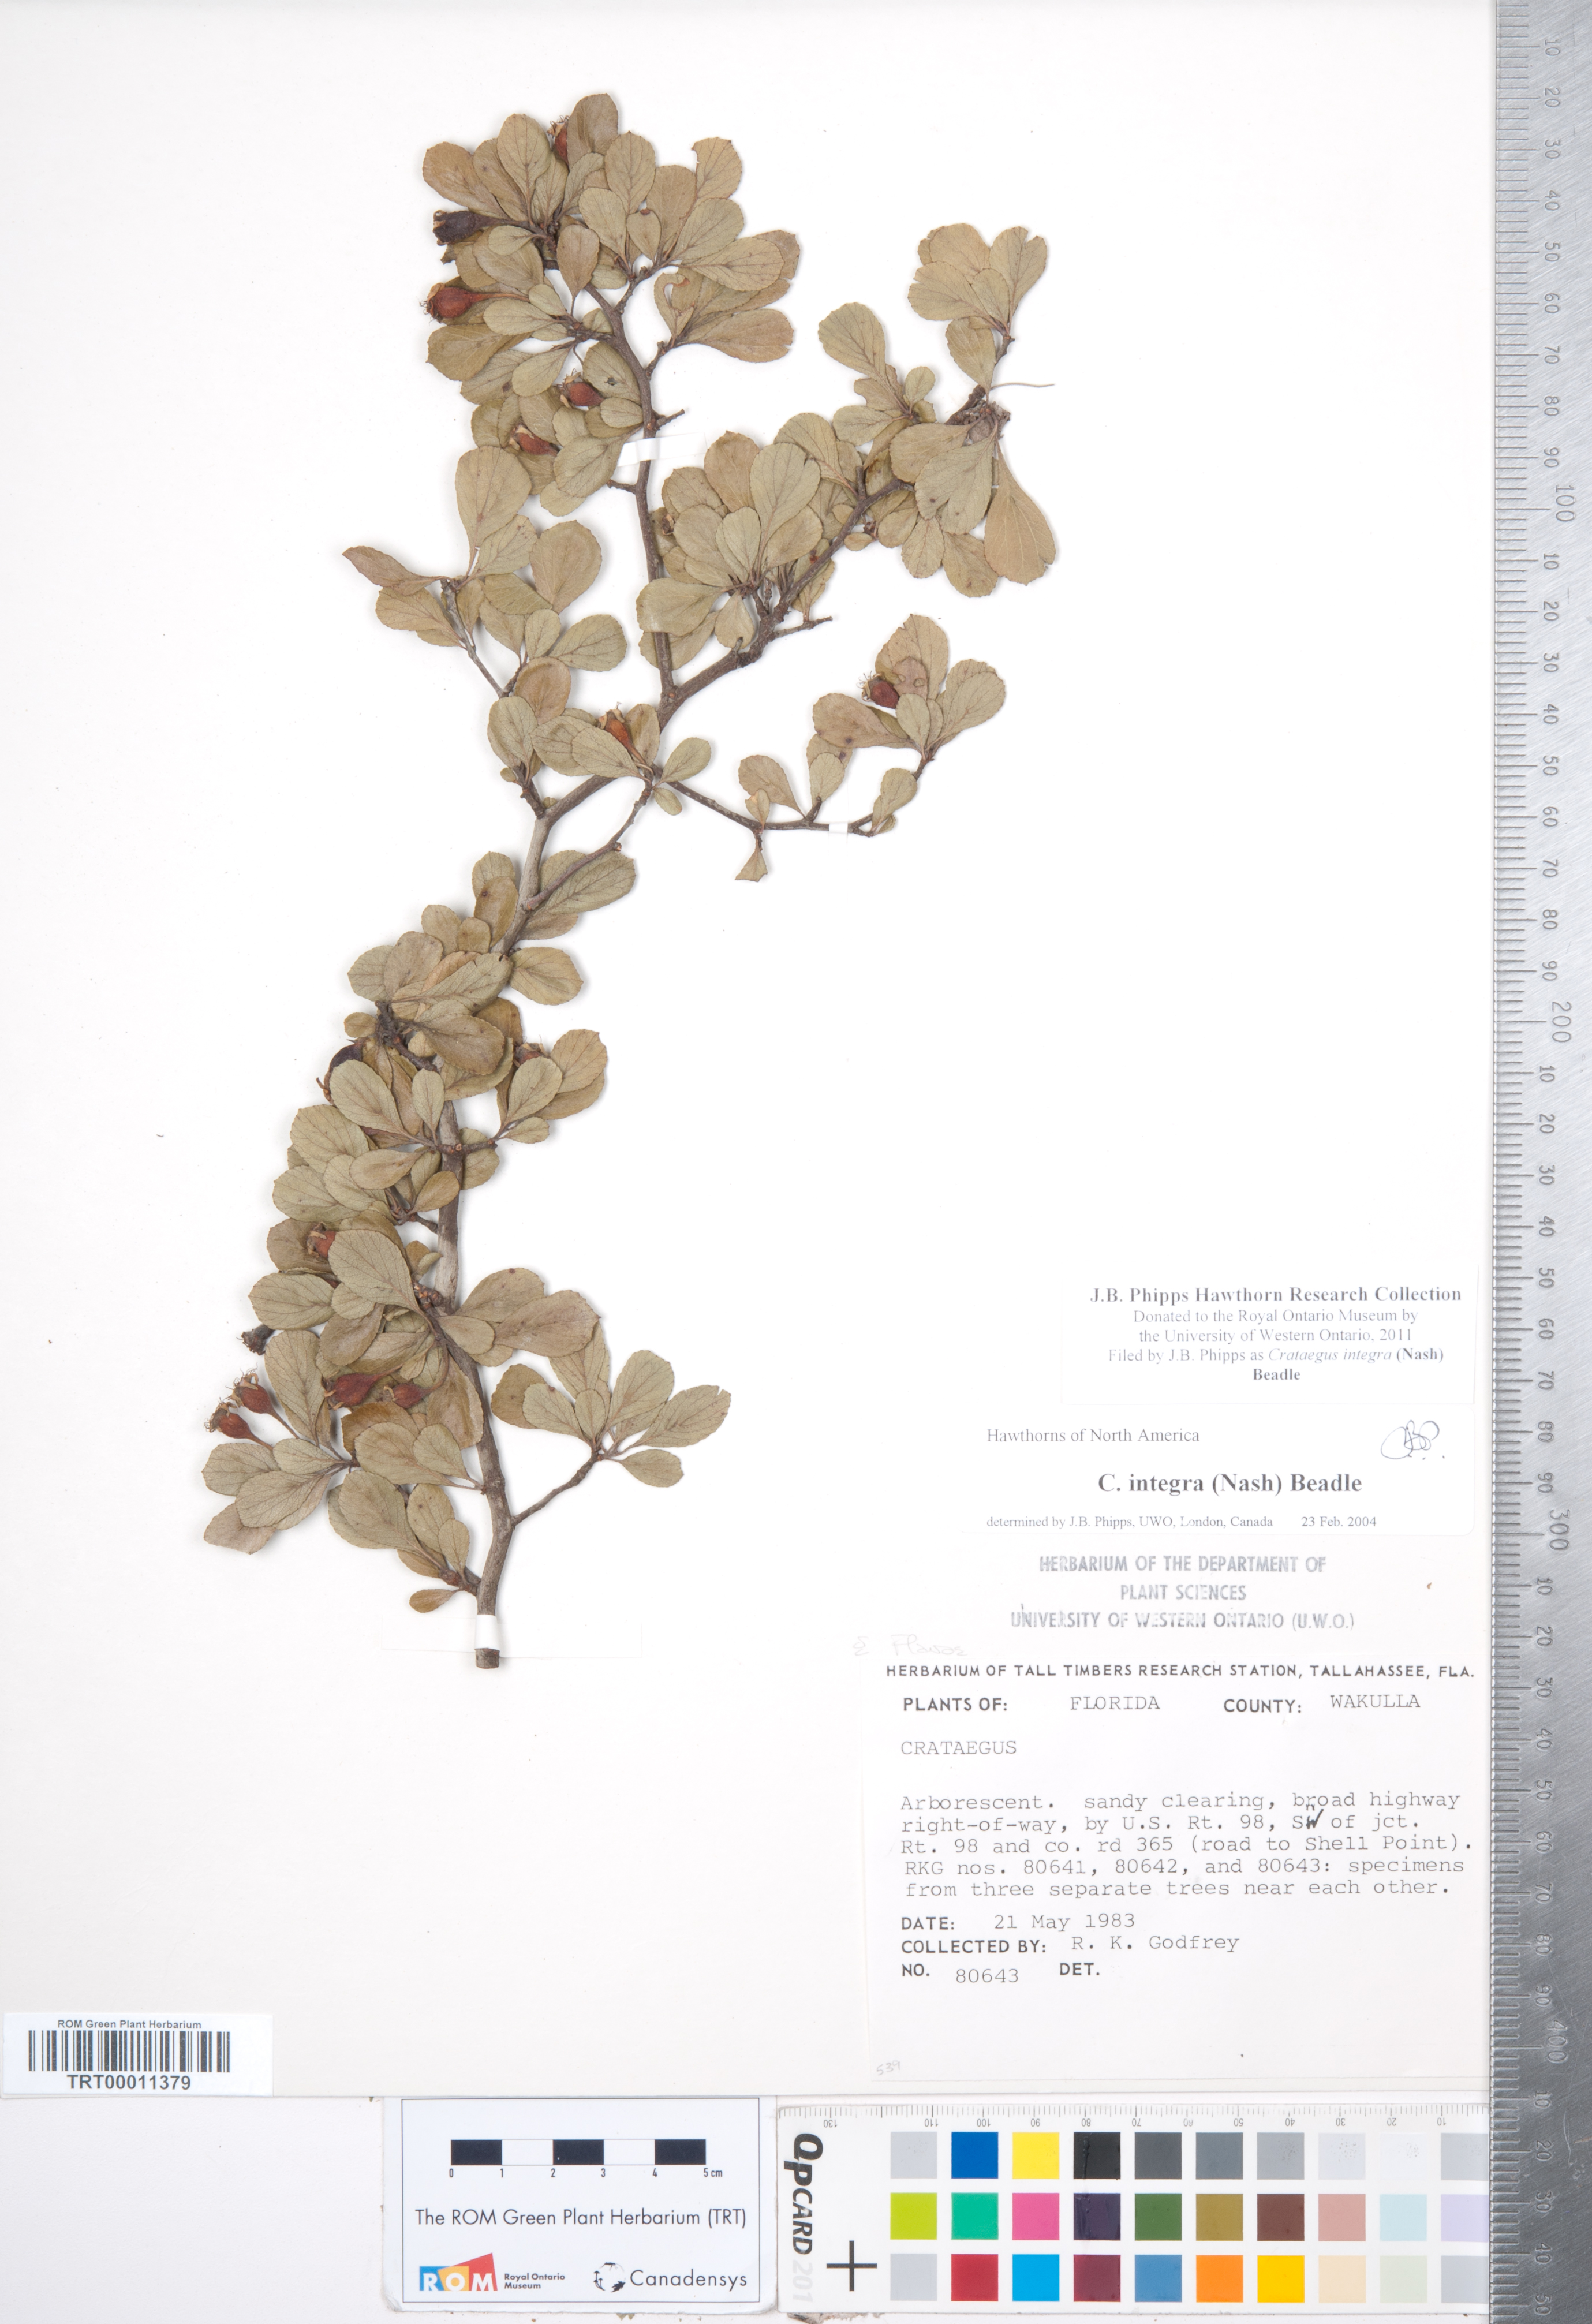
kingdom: Plantae
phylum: Tracheophyta
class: Magnoliopsida
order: Rosales
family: Rosaceae
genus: Crataegus
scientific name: Crataegus lassa
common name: Florida hawthorn
